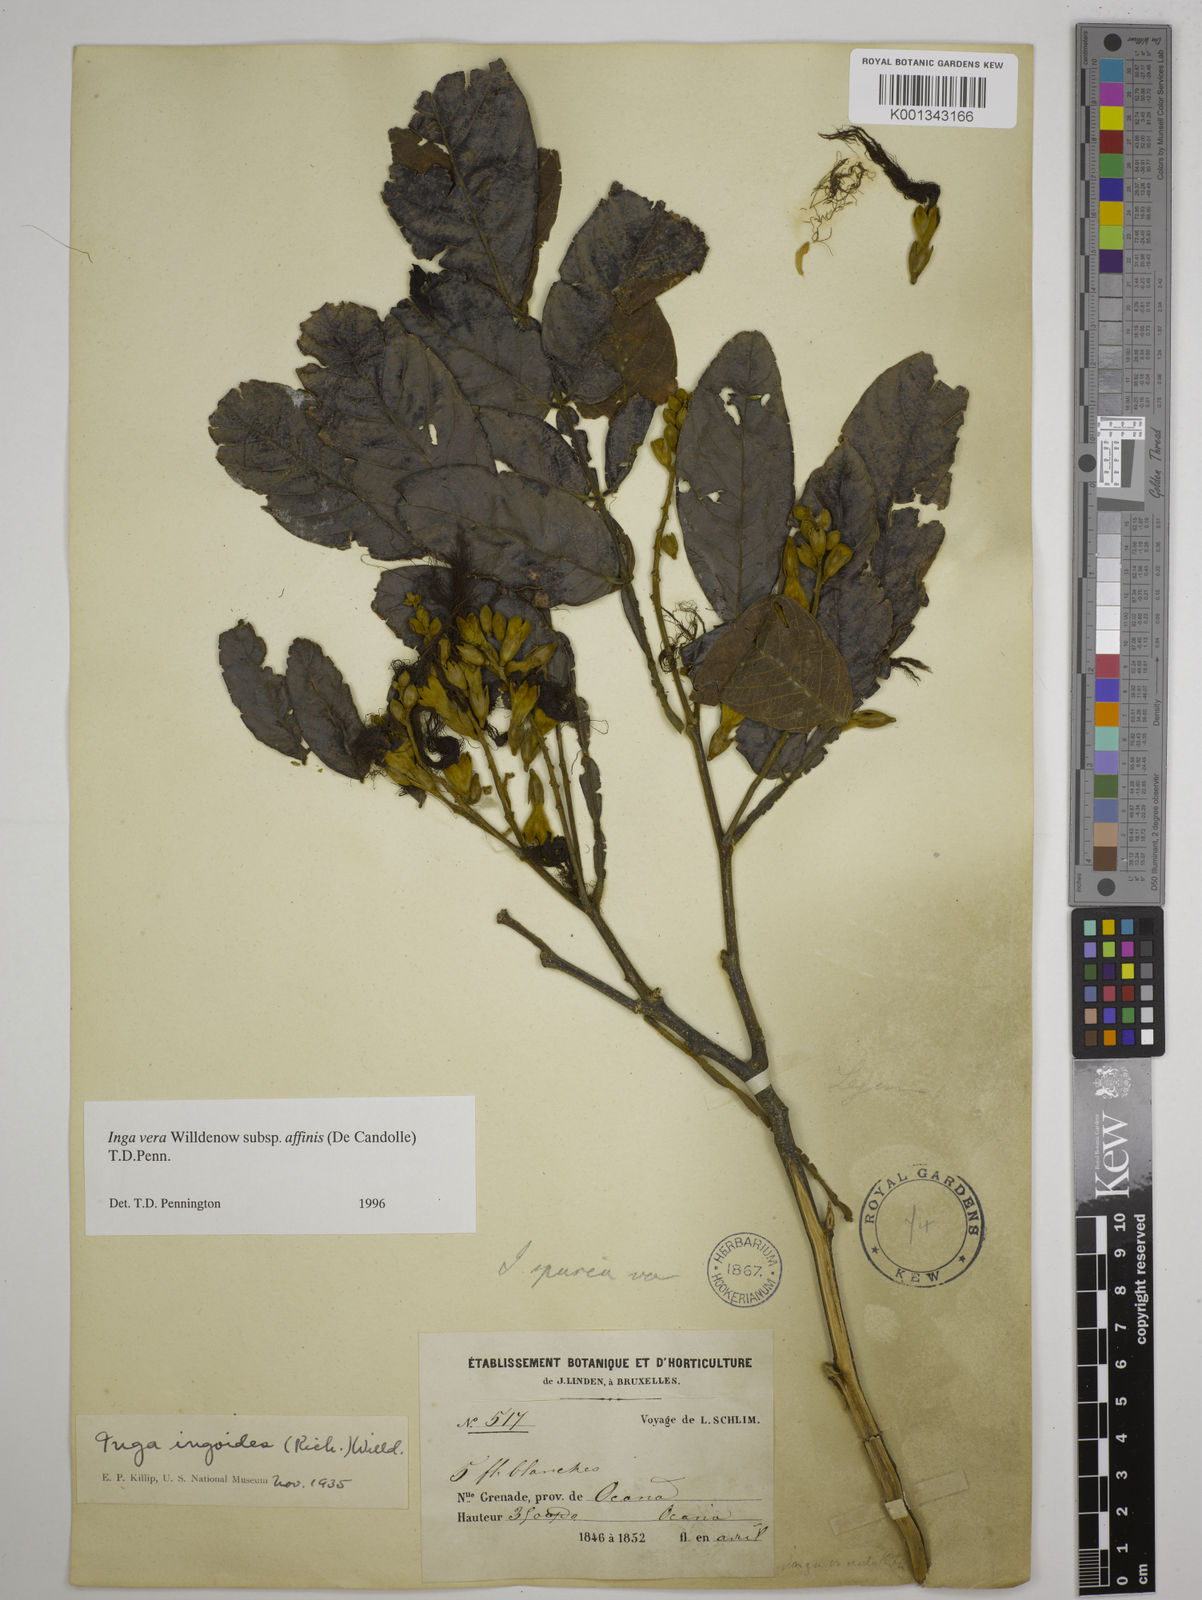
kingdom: Plantae
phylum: Tracheophyta
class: Magnoliopsida
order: Fabales
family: Fabaceae
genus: Inga
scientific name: Inga affinis
